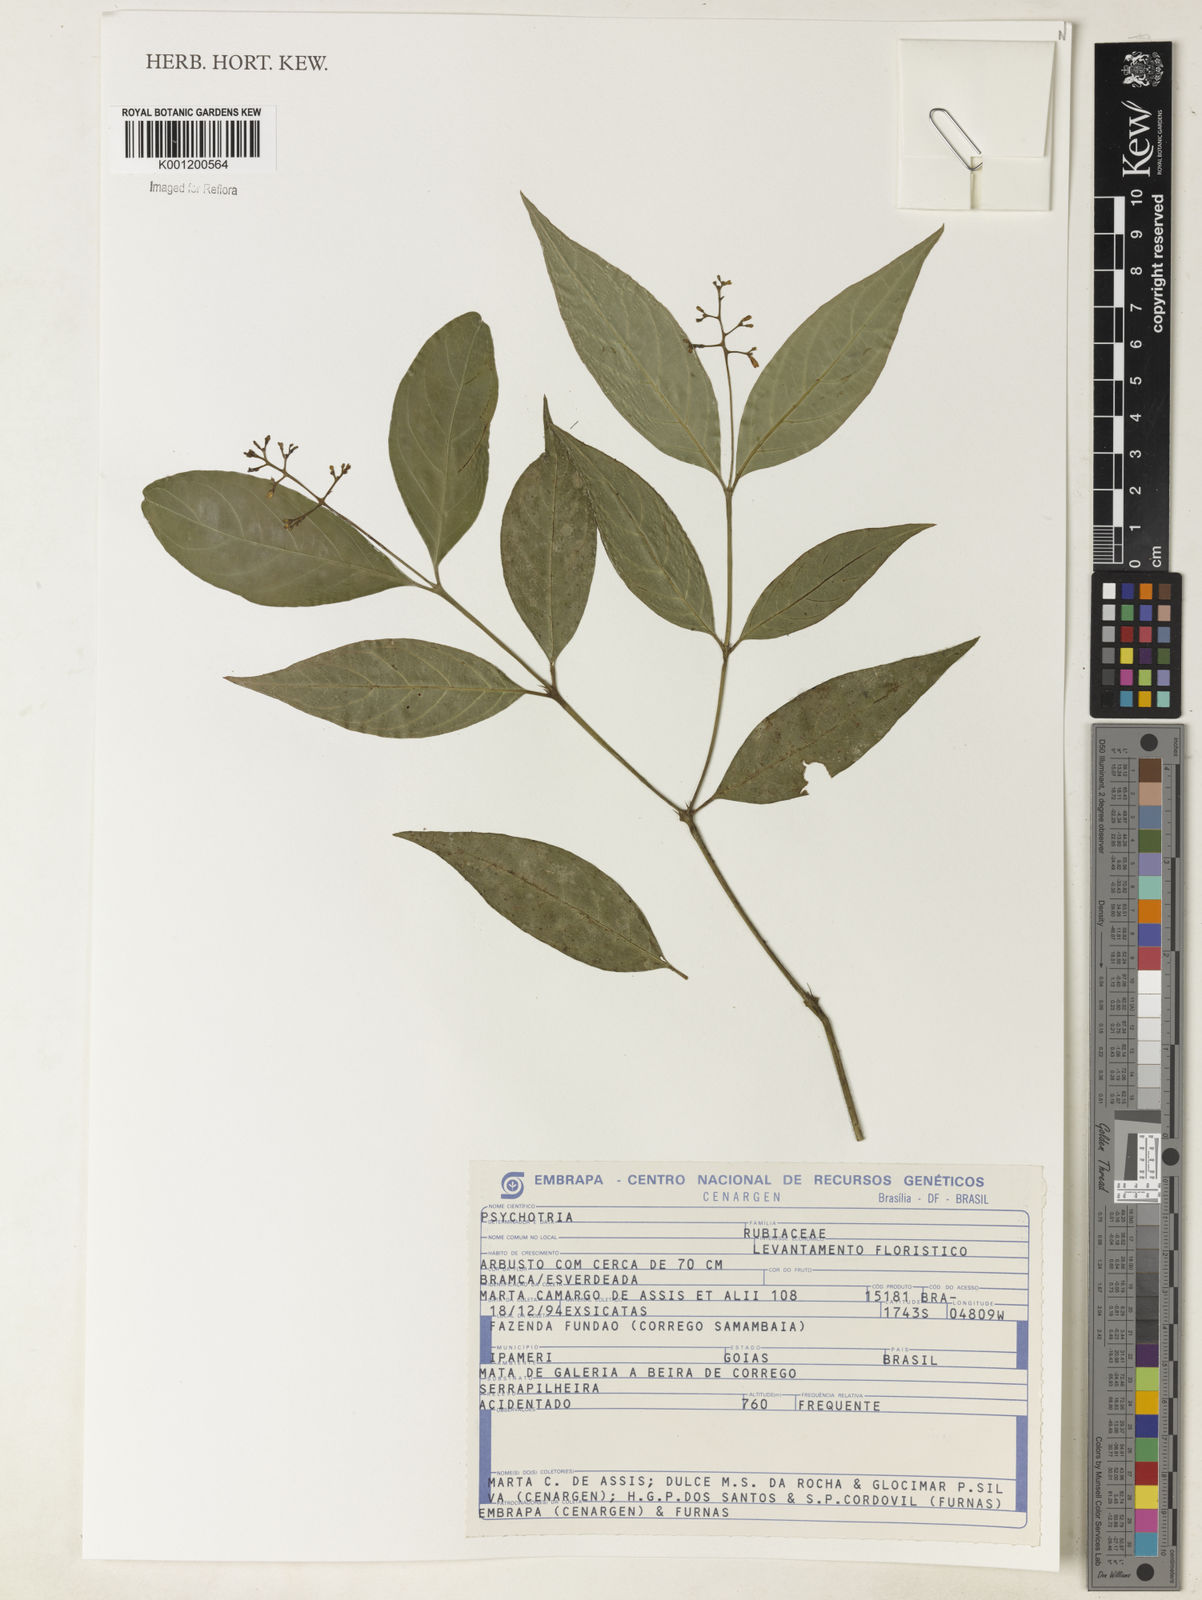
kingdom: Plantae
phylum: Tracheophyta
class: Magnoliopsida
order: Gentianales
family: Rubiaceae
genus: Psychotria
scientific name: Psychotria
